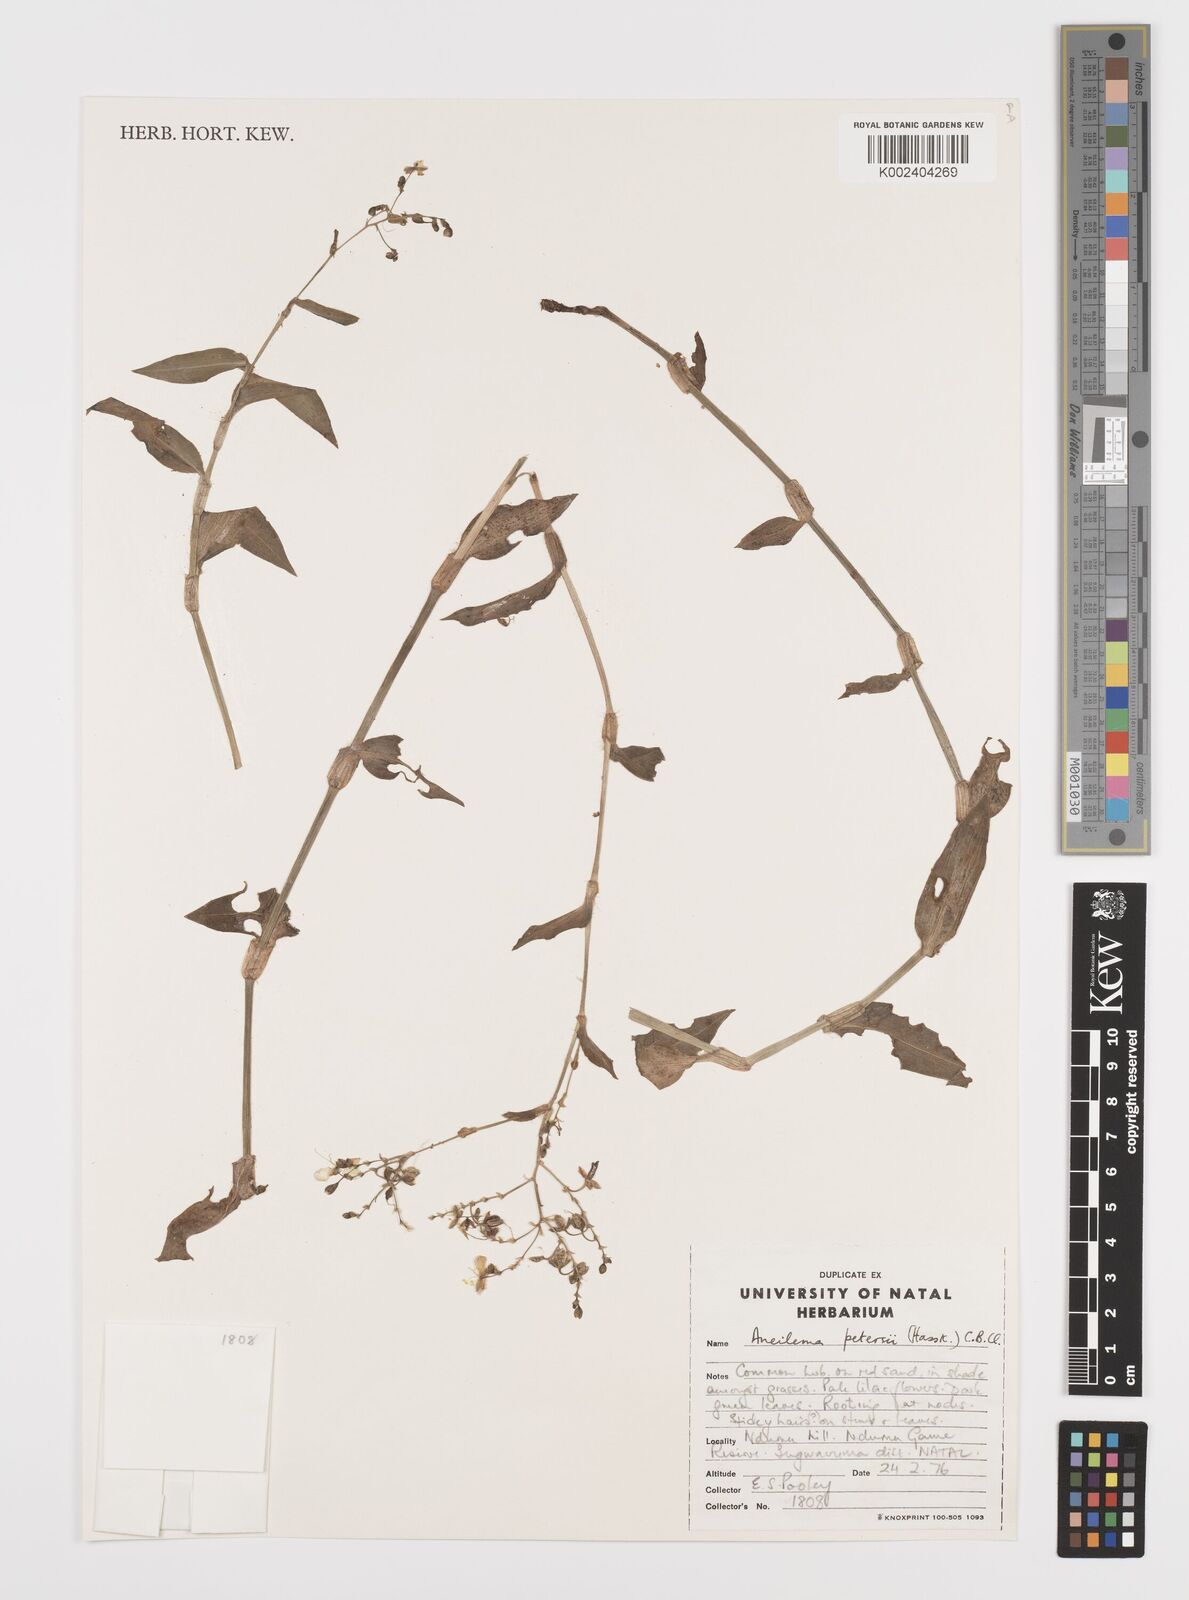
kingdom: Plantae
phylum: Tracheophyta
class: Liliopsida
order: Commelinales
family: Commelinaceae
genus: Aneilema
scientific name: Aneilema indehiscens
